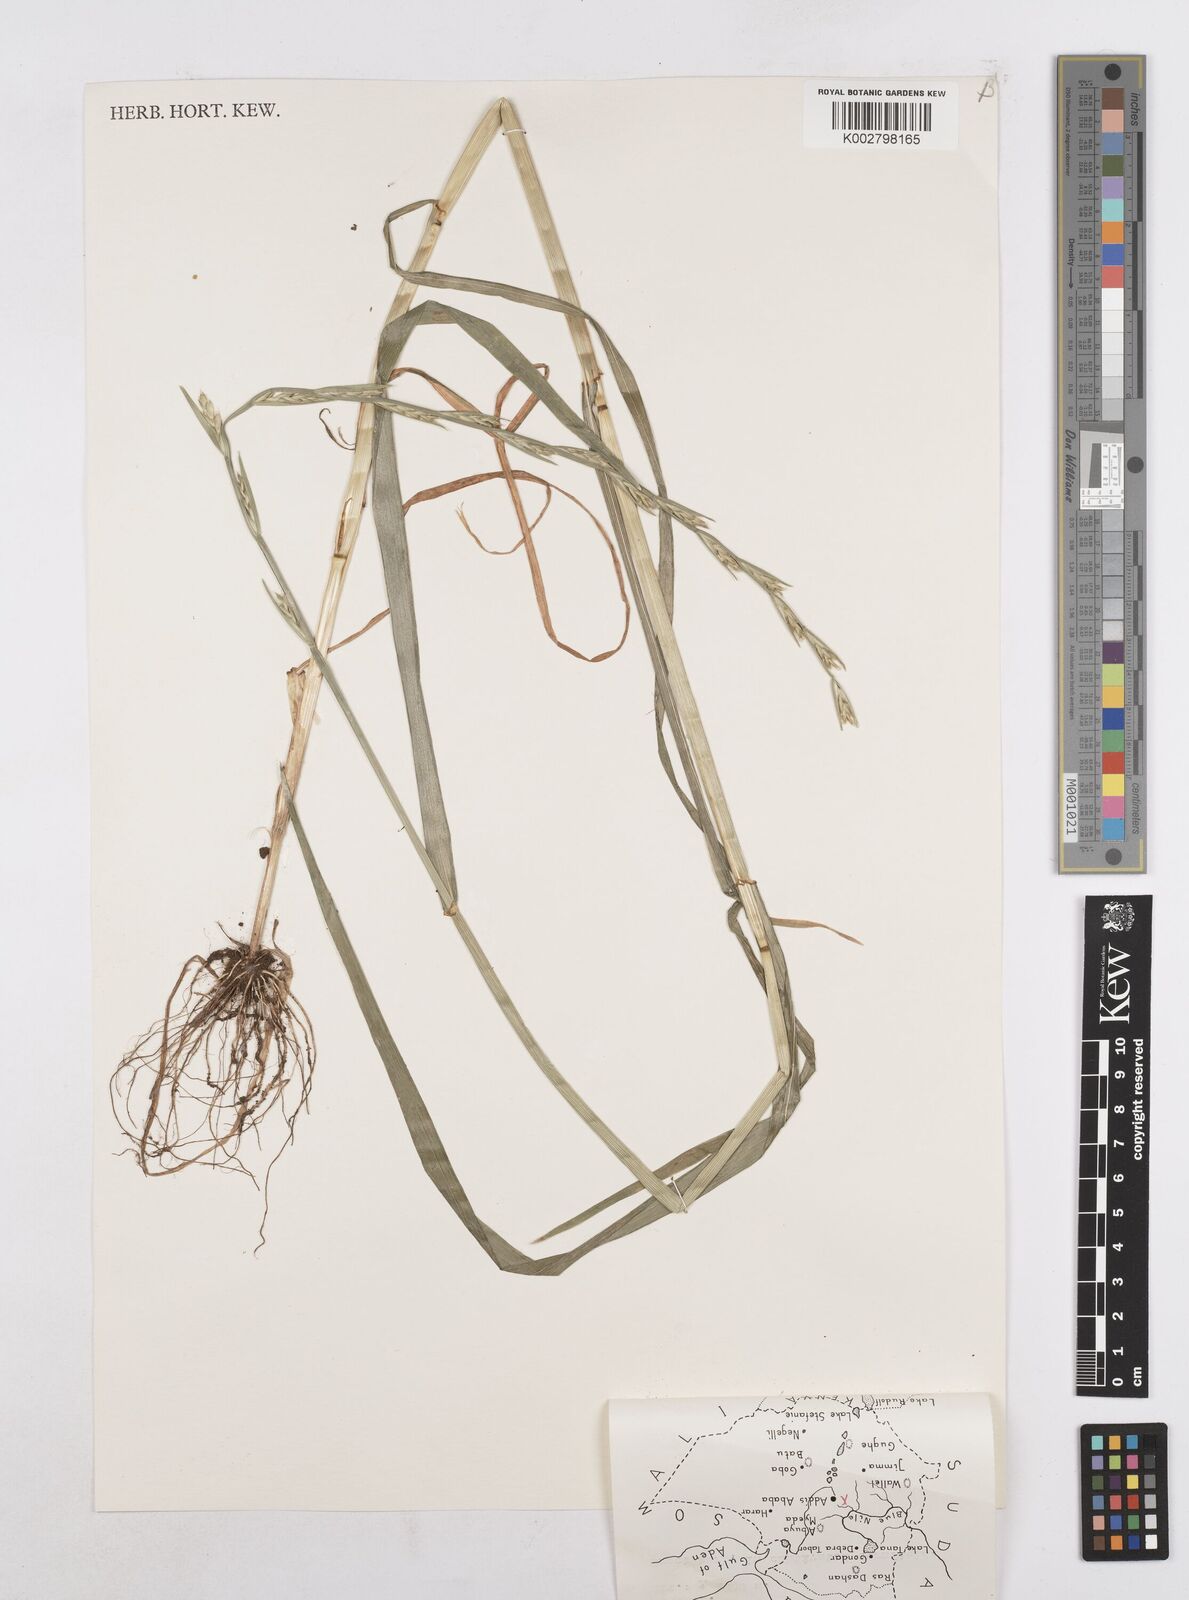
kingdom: Plantae
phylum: Tracheophyta
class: Liliopsida
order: Poales
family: Poaceae
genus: Lolium
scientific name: Lolium temulentum
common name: Darnel
